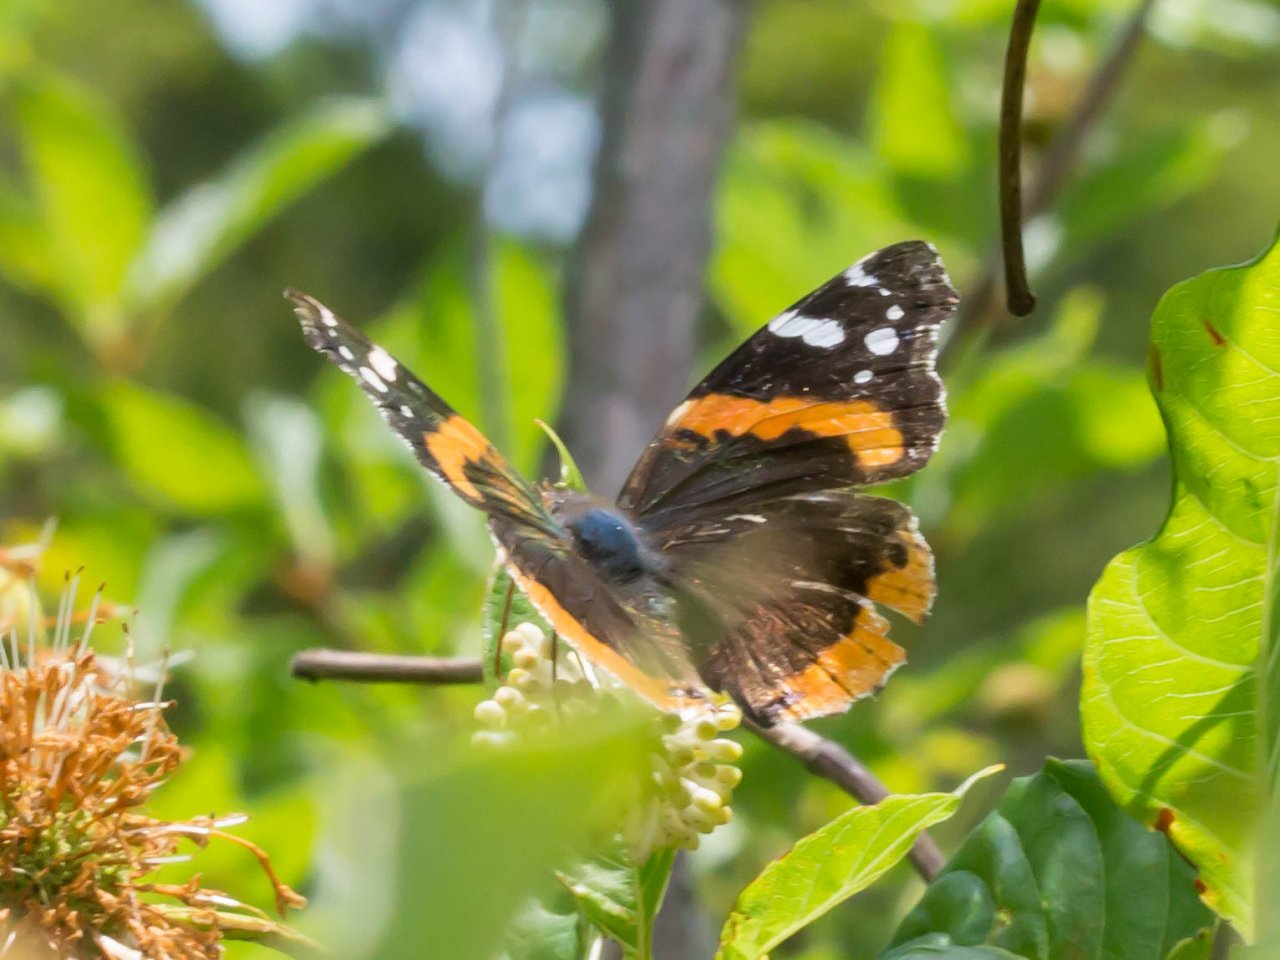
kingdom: Animalia
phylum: Arthropoda
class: Insecta
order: Lepidoptera
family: Nymphalidae
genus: Vanessa
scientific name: Vanessa atalanta
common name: Red Admiral
